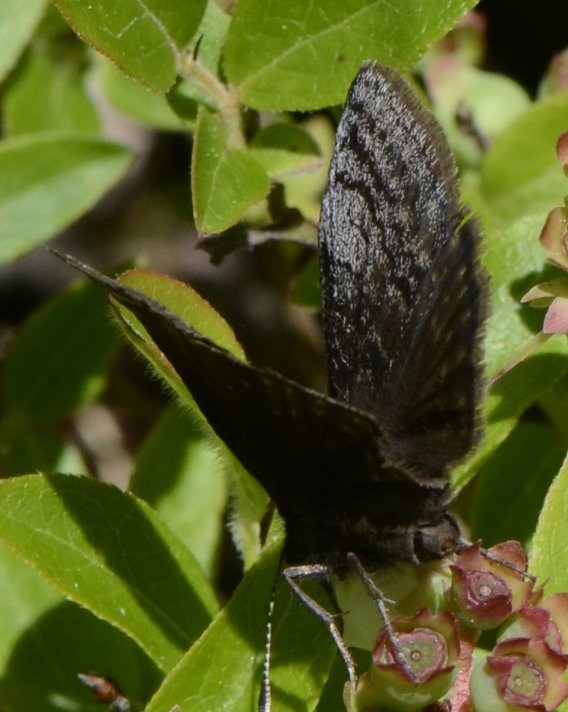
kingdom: Animalia
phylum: Arthropoda
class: Insecta
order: Lepidoptera
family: Hesperiidae
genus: Erynnis
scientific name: Erynnis icelus
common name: Dreamy Duskywing
